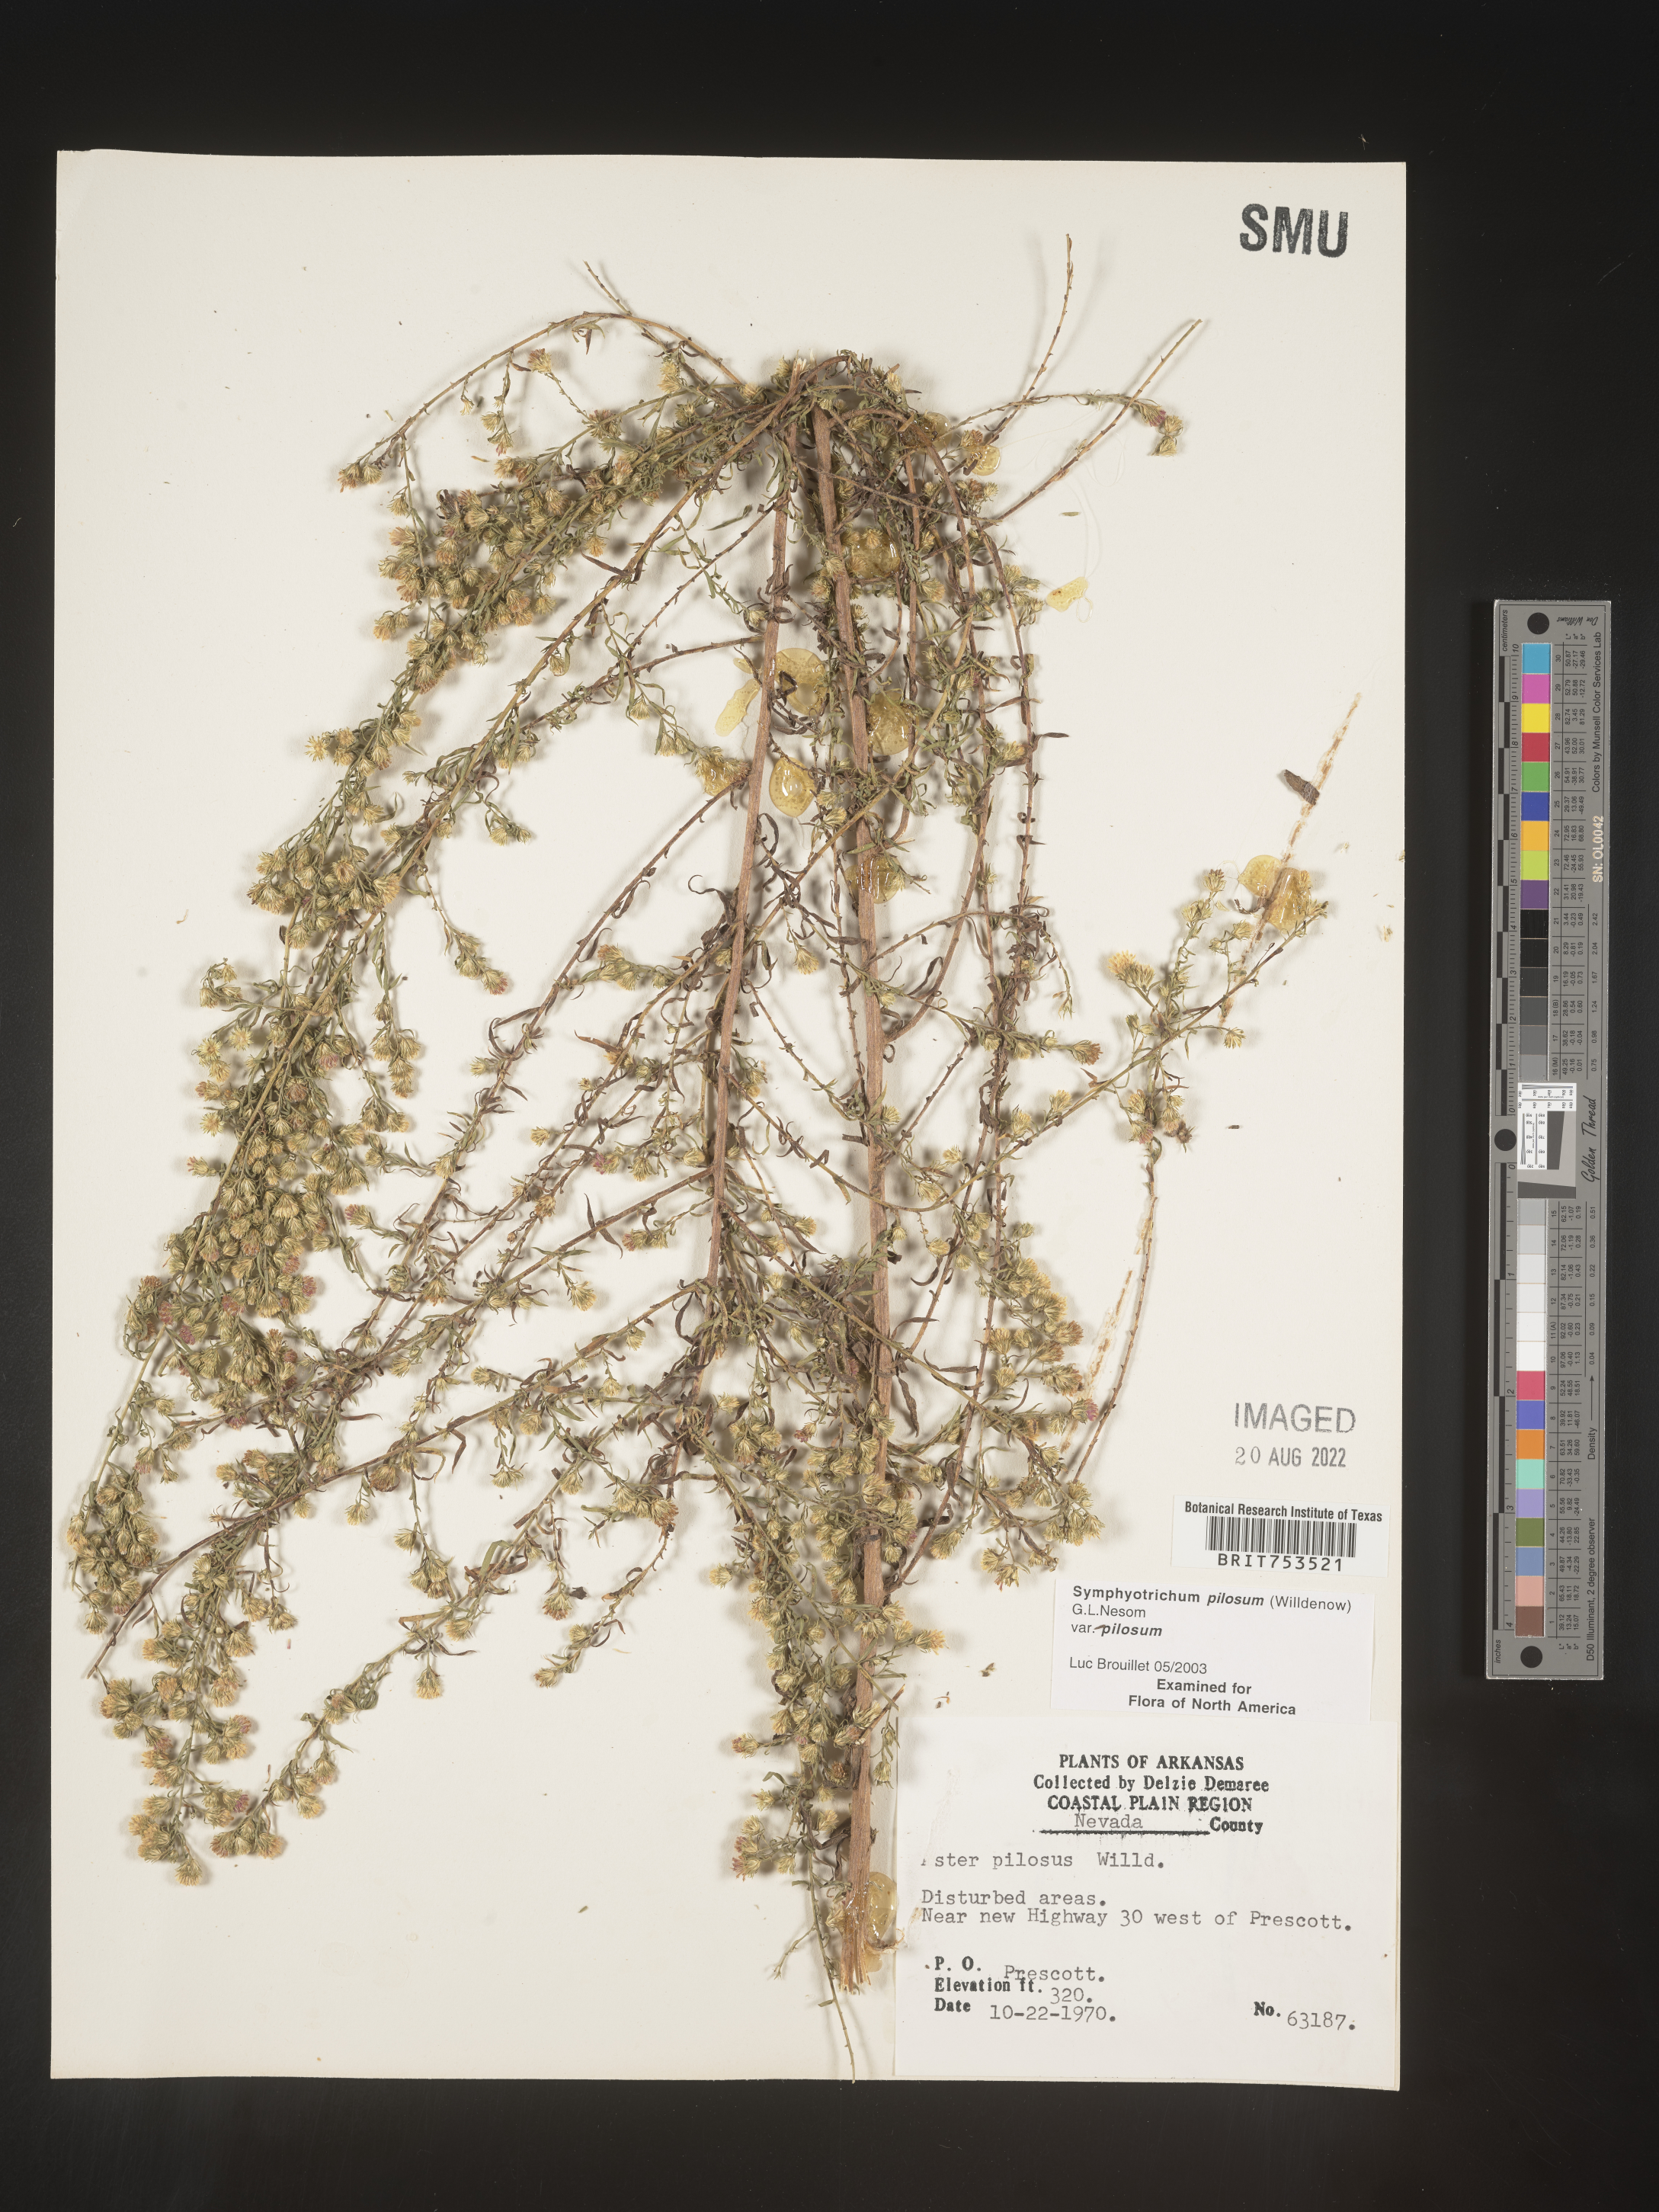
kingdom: Plantae
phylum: Tracheophyta
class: Magnoliopsida
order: Asterales
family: Asteraceae
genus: Symphyotrichum
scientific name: Symphyotrichum pilosum
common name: Awl aster
